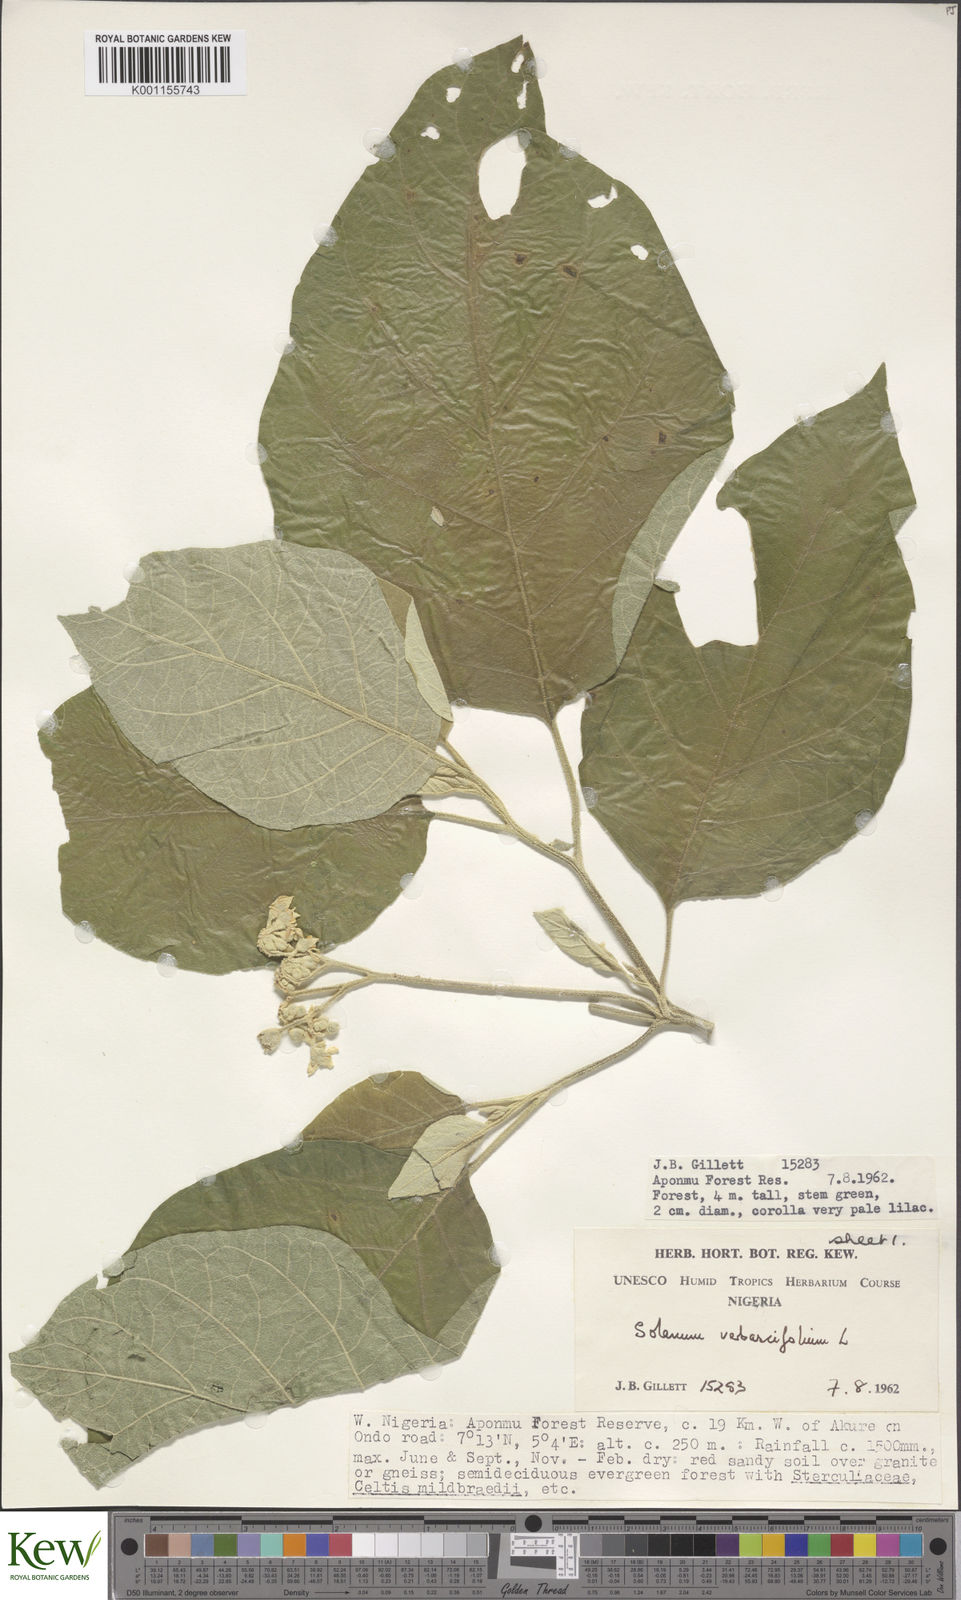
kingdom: Plantae
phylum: Tracheophyta
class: Magnoliopsida
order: Solanales
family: Solanaceae
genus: Solanum
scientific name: Solanum erianthum
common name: Tobacco-tree
